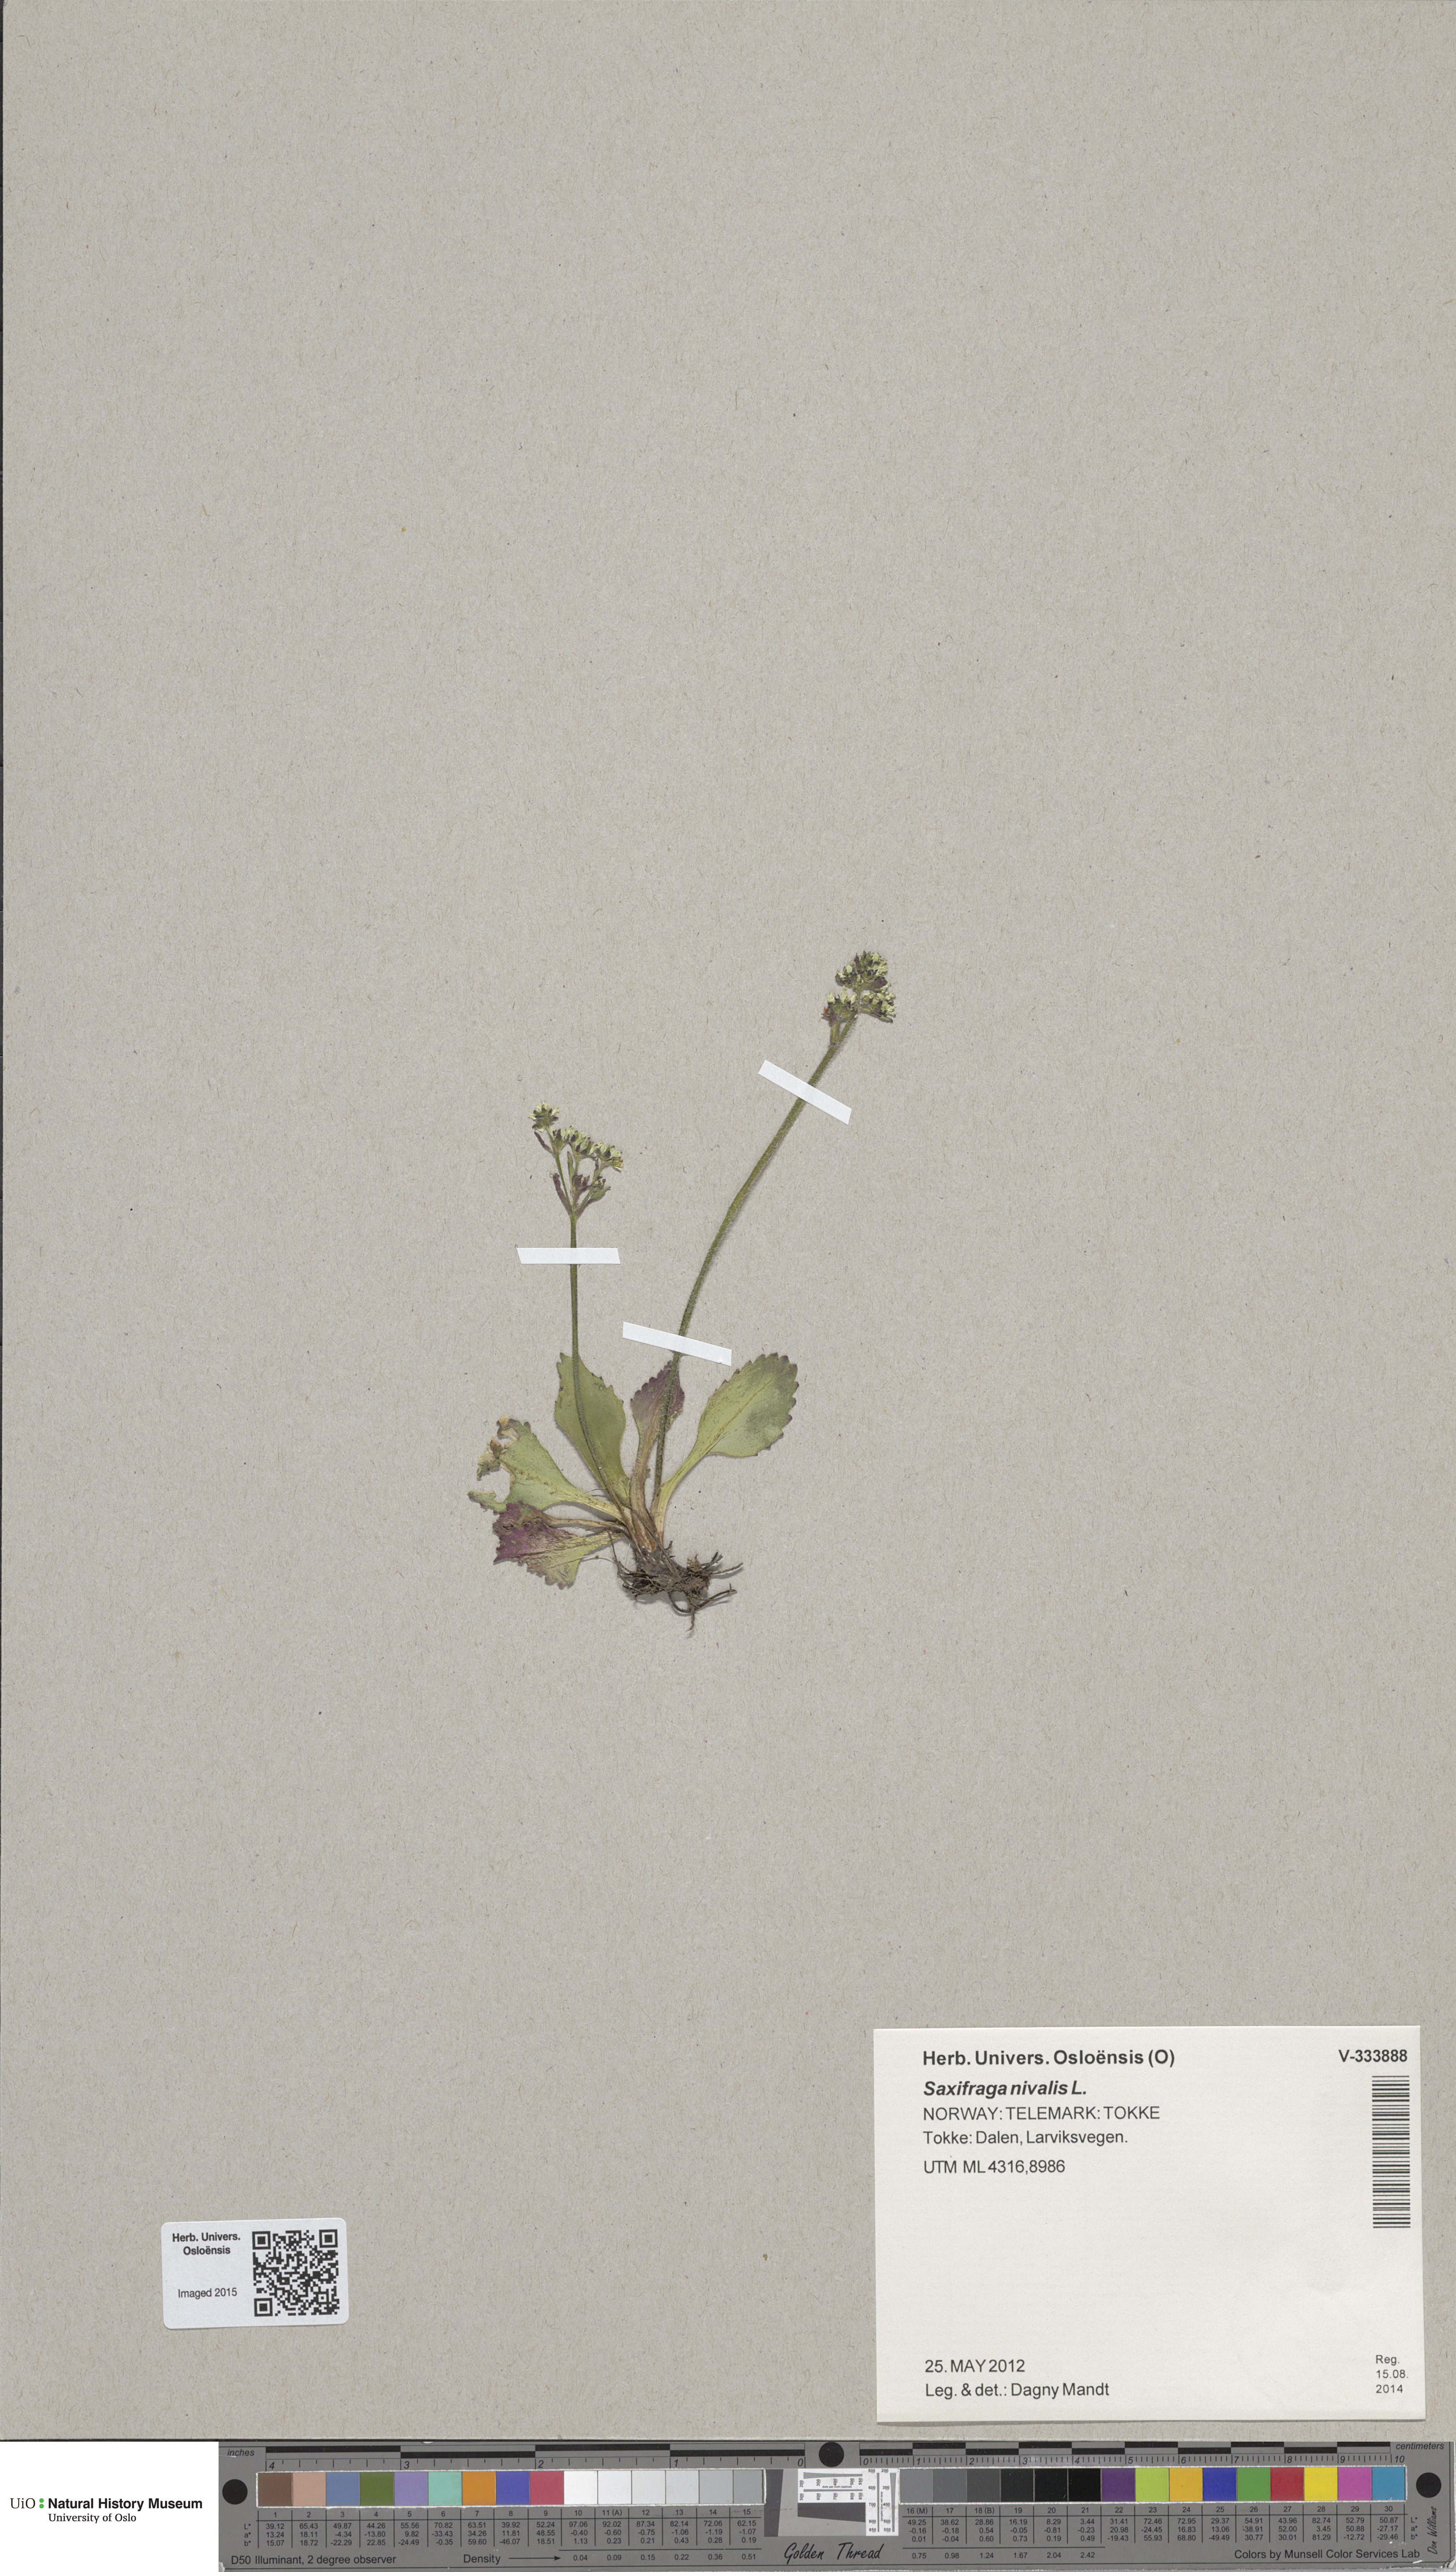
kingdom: Plantae
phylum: Tracheophyta
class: Magnoliopsida
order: Saxifragales
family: Saxifragaceae
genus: Micranthes
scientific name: Micranthes nivalis
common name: Alpine saxifrage
